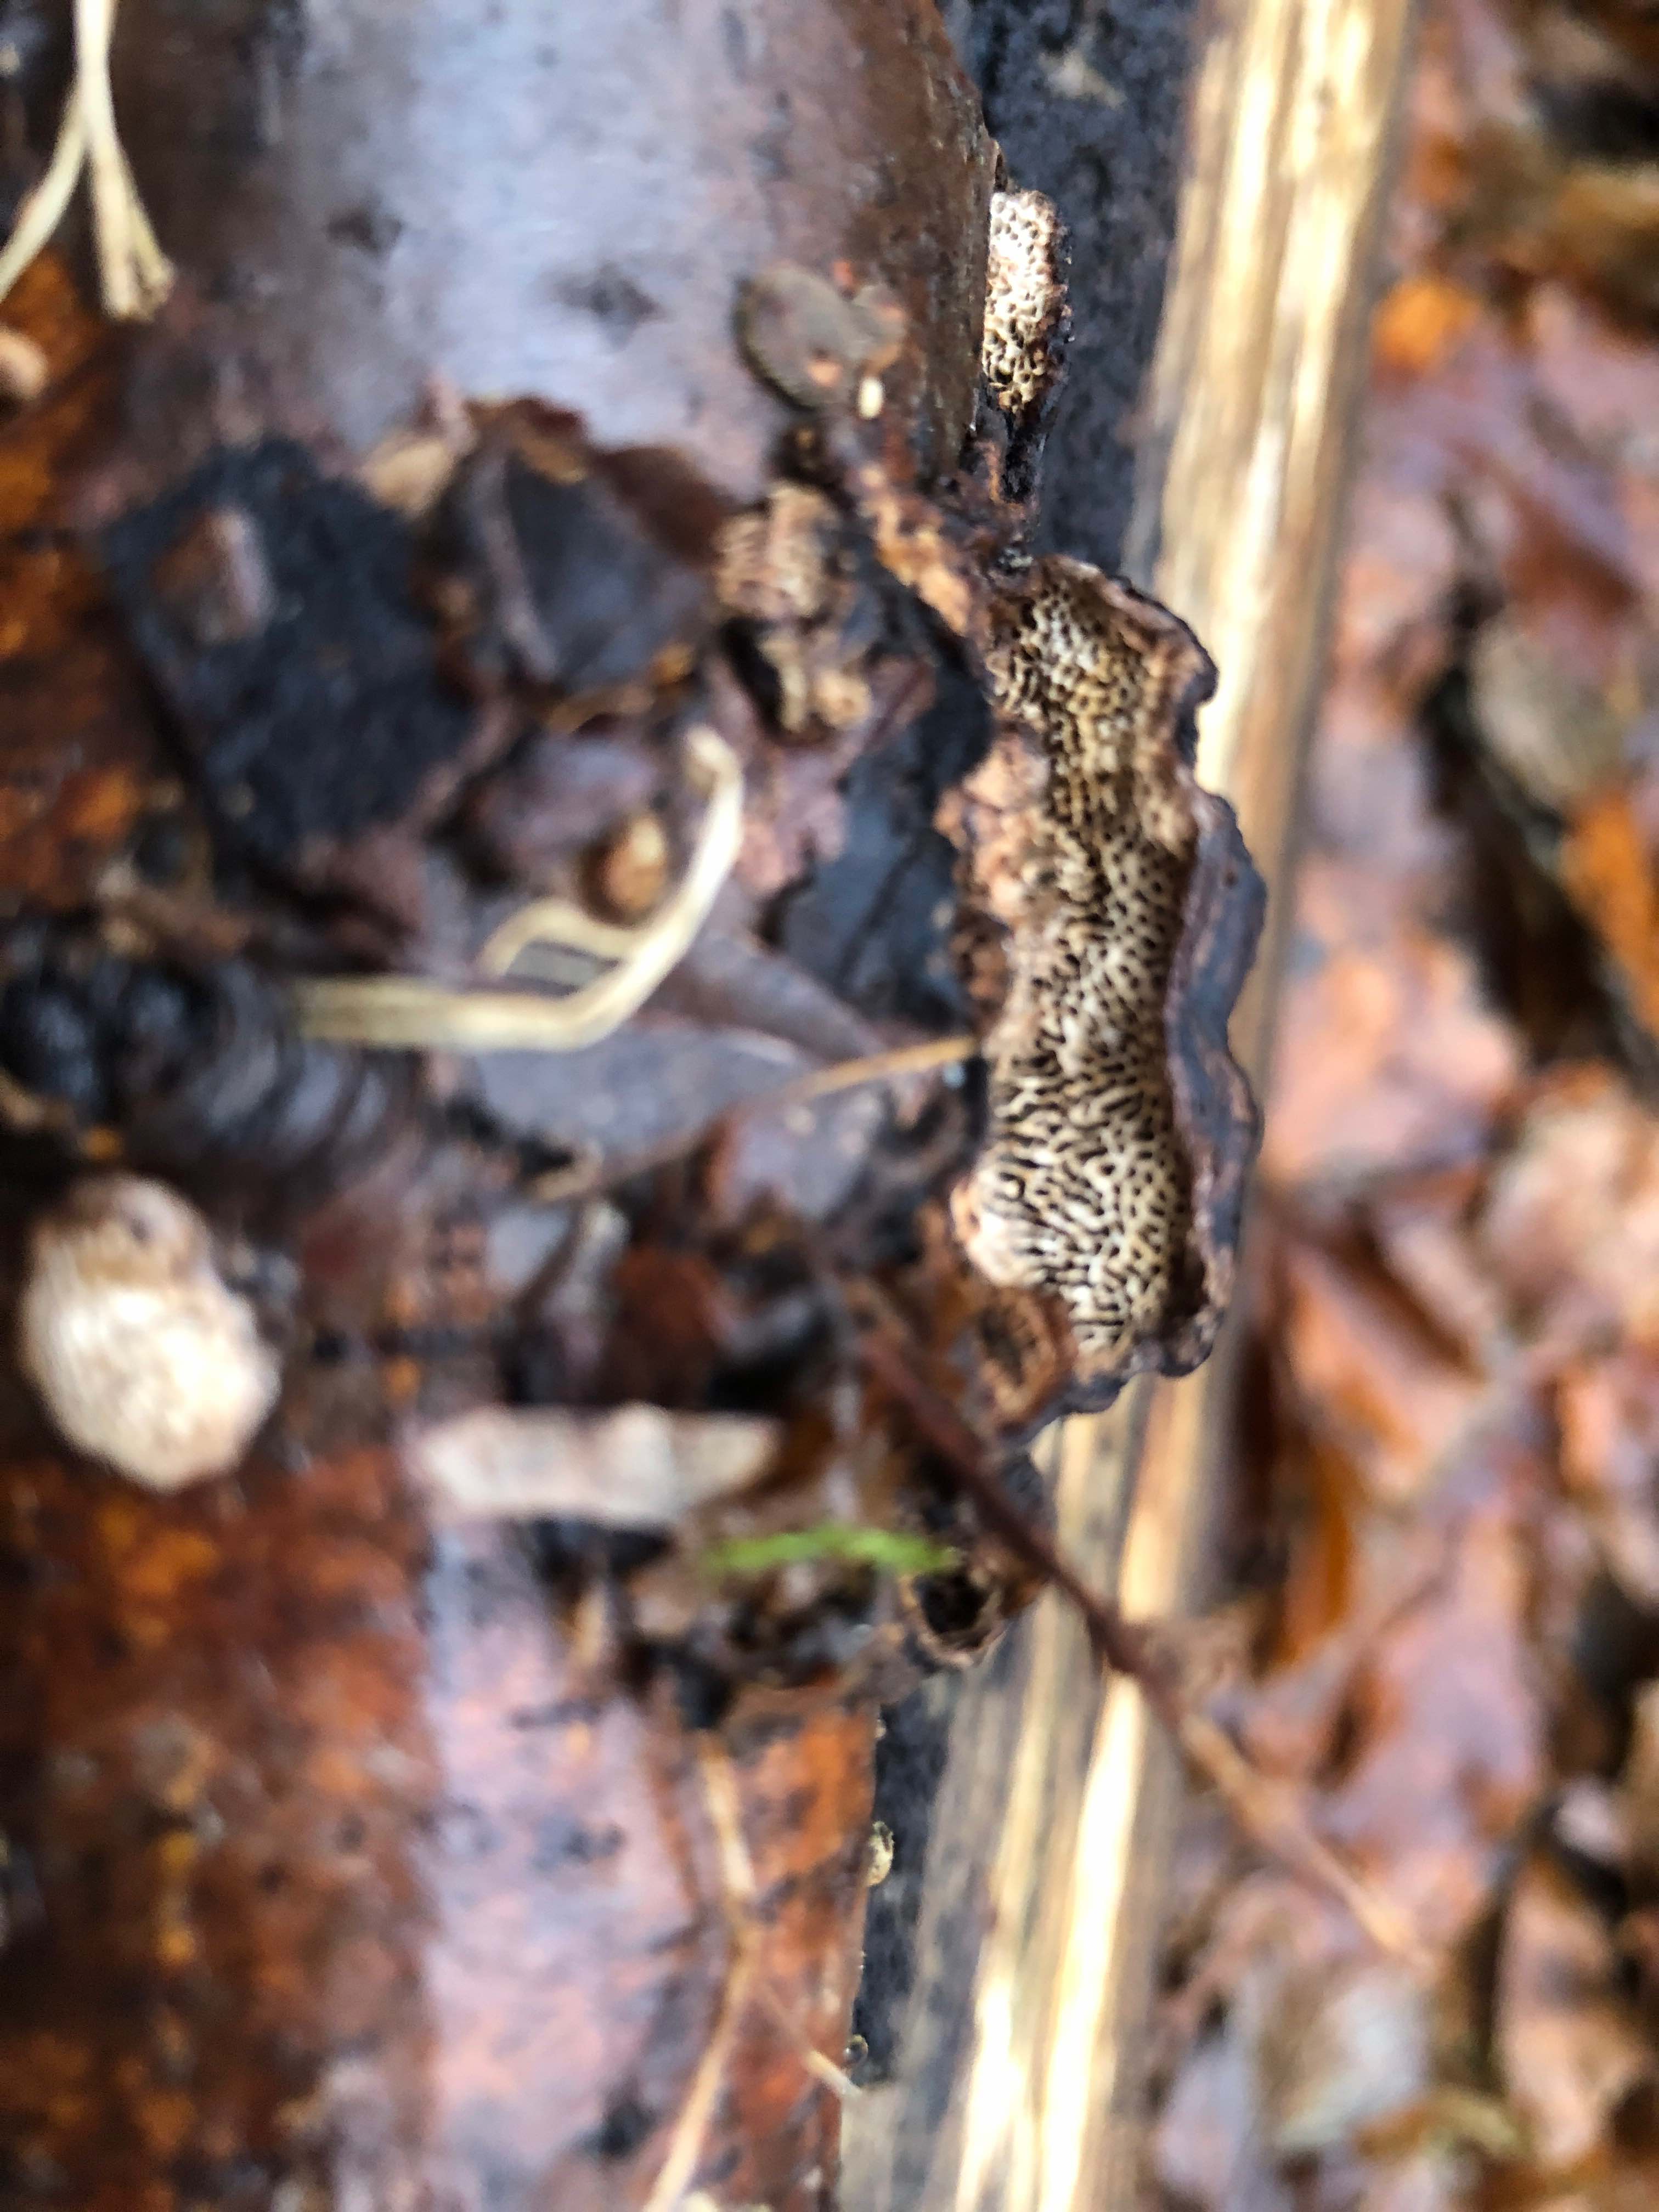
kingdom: Fungi
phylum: Basidiomycota
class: Agaricomycetes
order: Polyporales
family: Polyporaceae
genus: Podofomes
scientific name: Podofomes mollis
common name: blød begporesvamp
